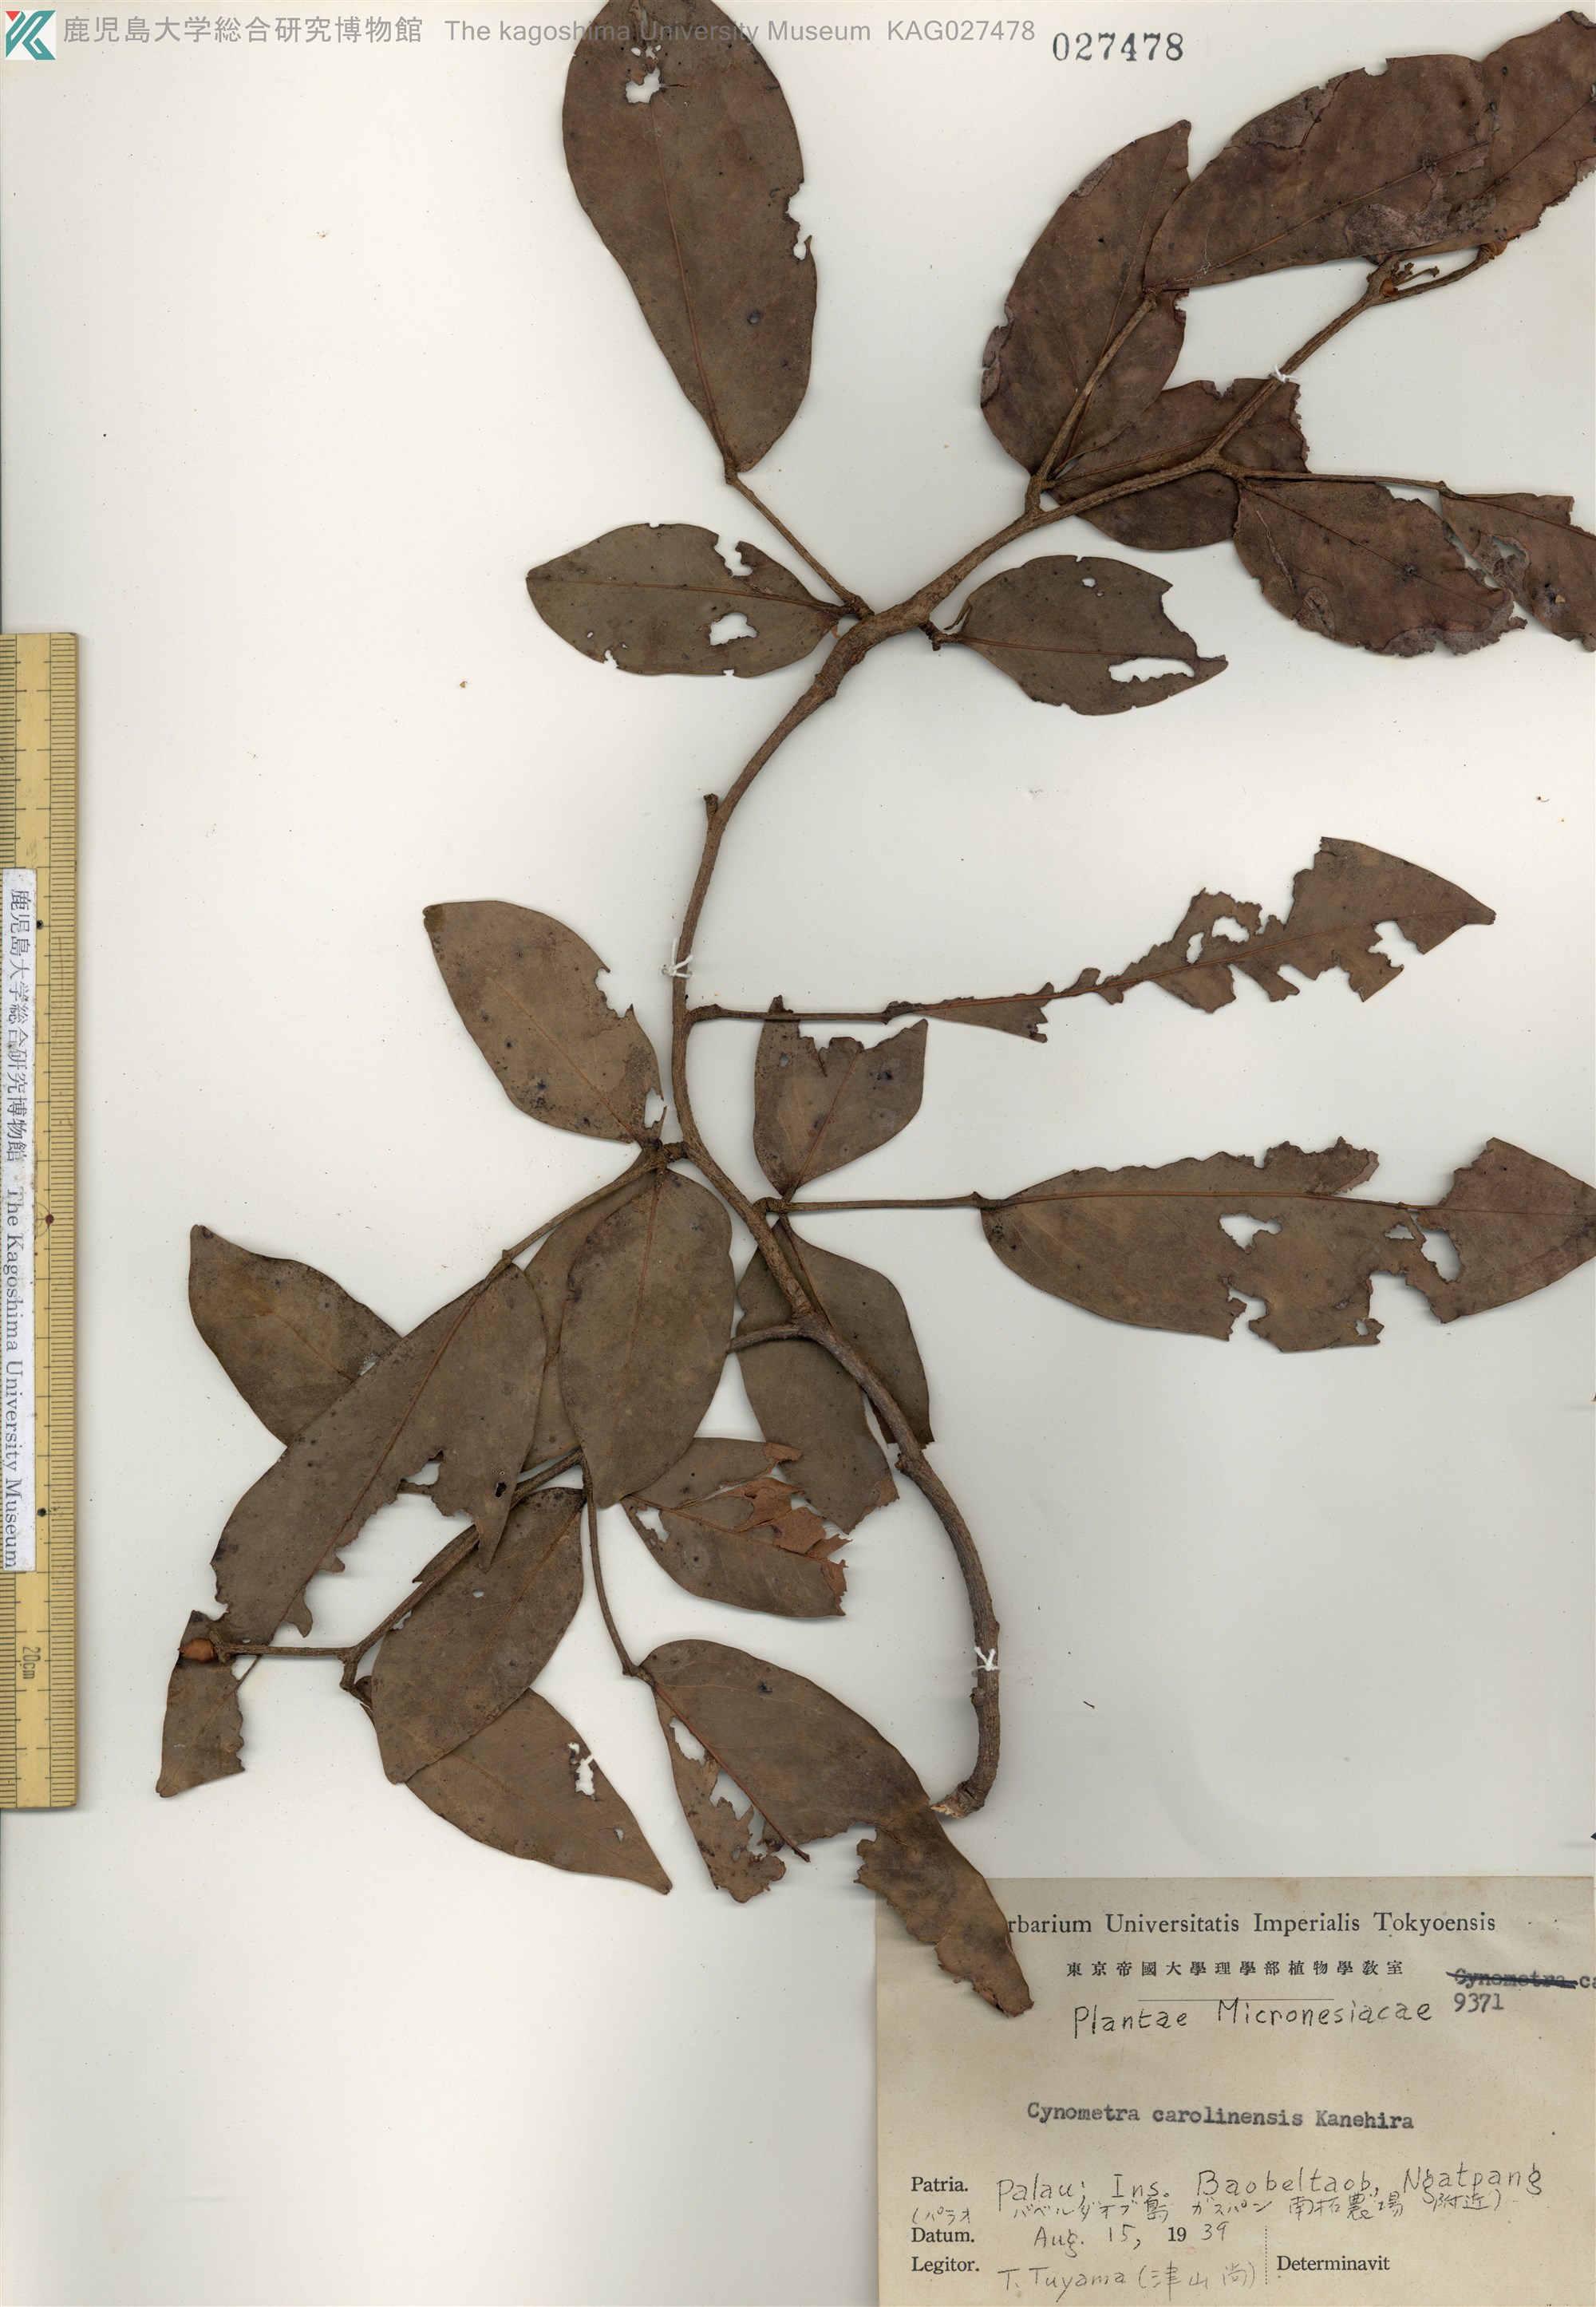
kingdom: Plantae
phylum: Tracheophyta
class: Magnoliopsida
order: Fabales
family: Fabaceae
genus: Cynometra
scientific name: Cynometra ramiflora
